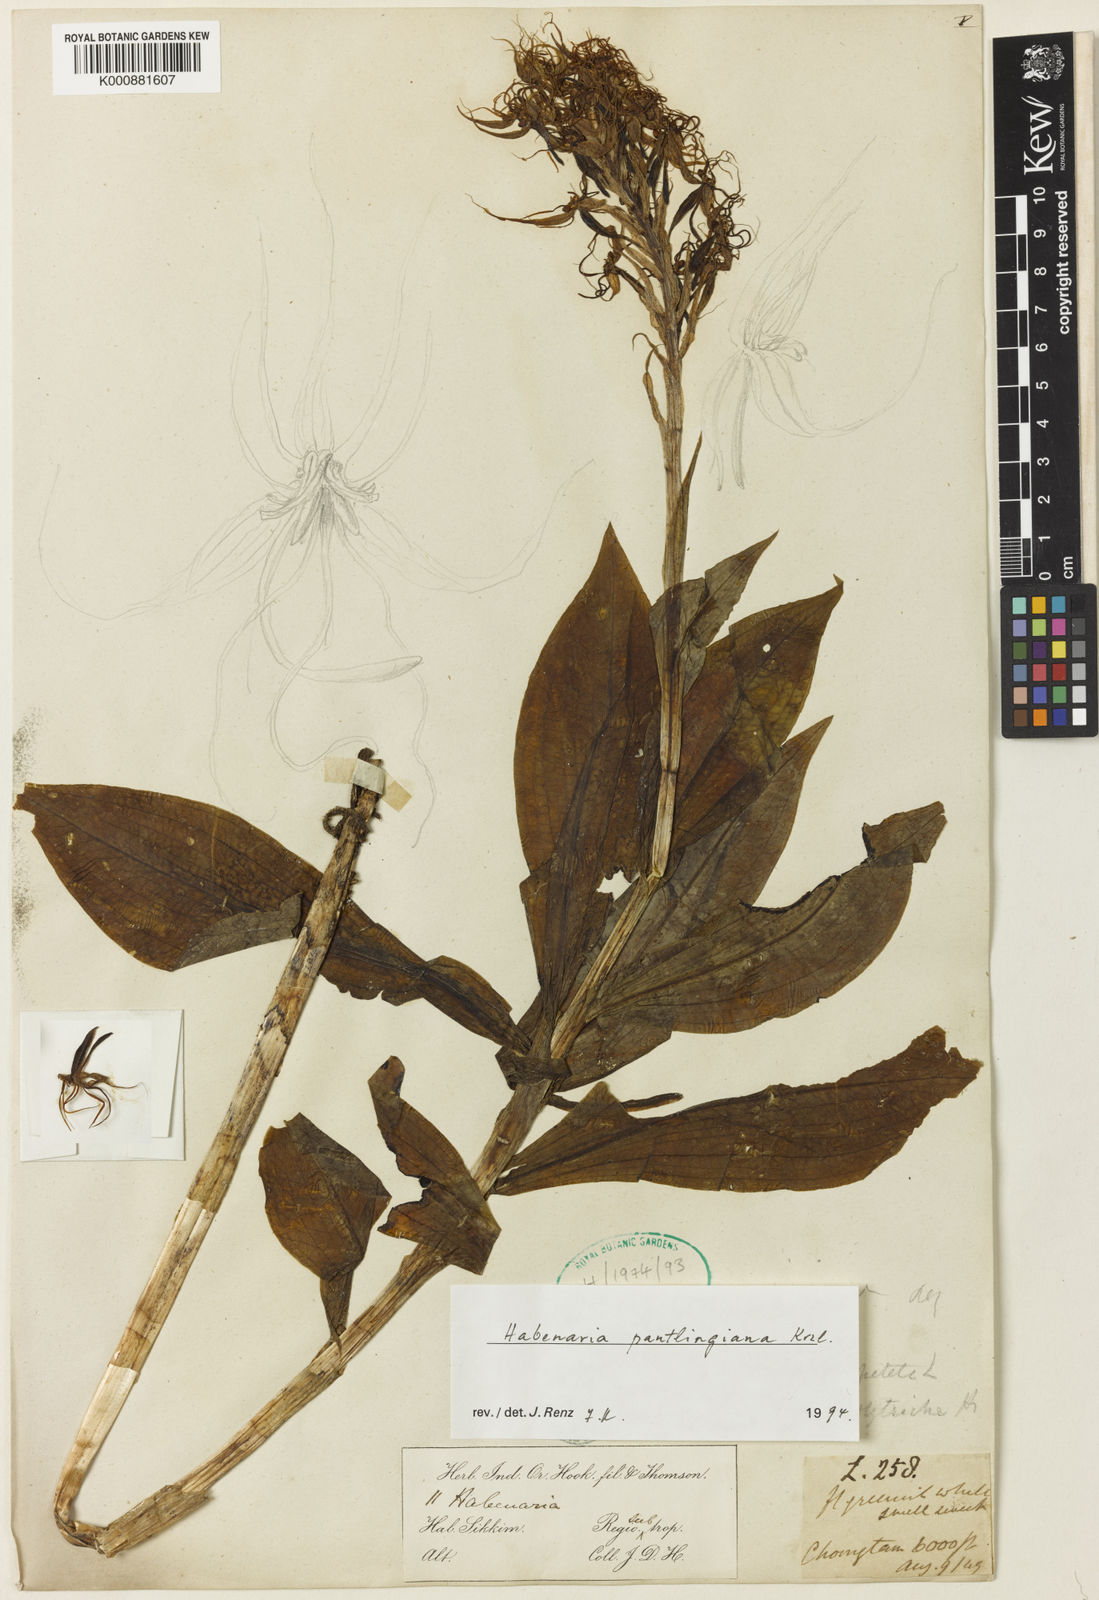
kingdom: Plantae
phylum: Tracheophyta
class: Liliopsida
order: Asparagales
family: Orchidaceae
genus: Habenaria
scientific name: Habenaria pantlingiana
